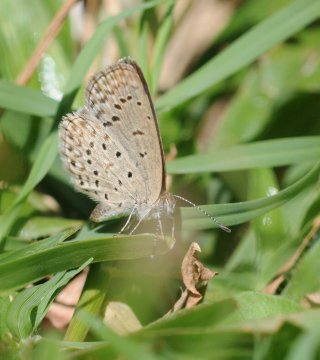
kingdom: Animalia
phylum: Arthropoda
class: Insecta
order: Lepidoptera
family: Lycaenidae
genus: Zizeeria
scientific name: Zizeeria knysna
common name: Dark Grass Blue
